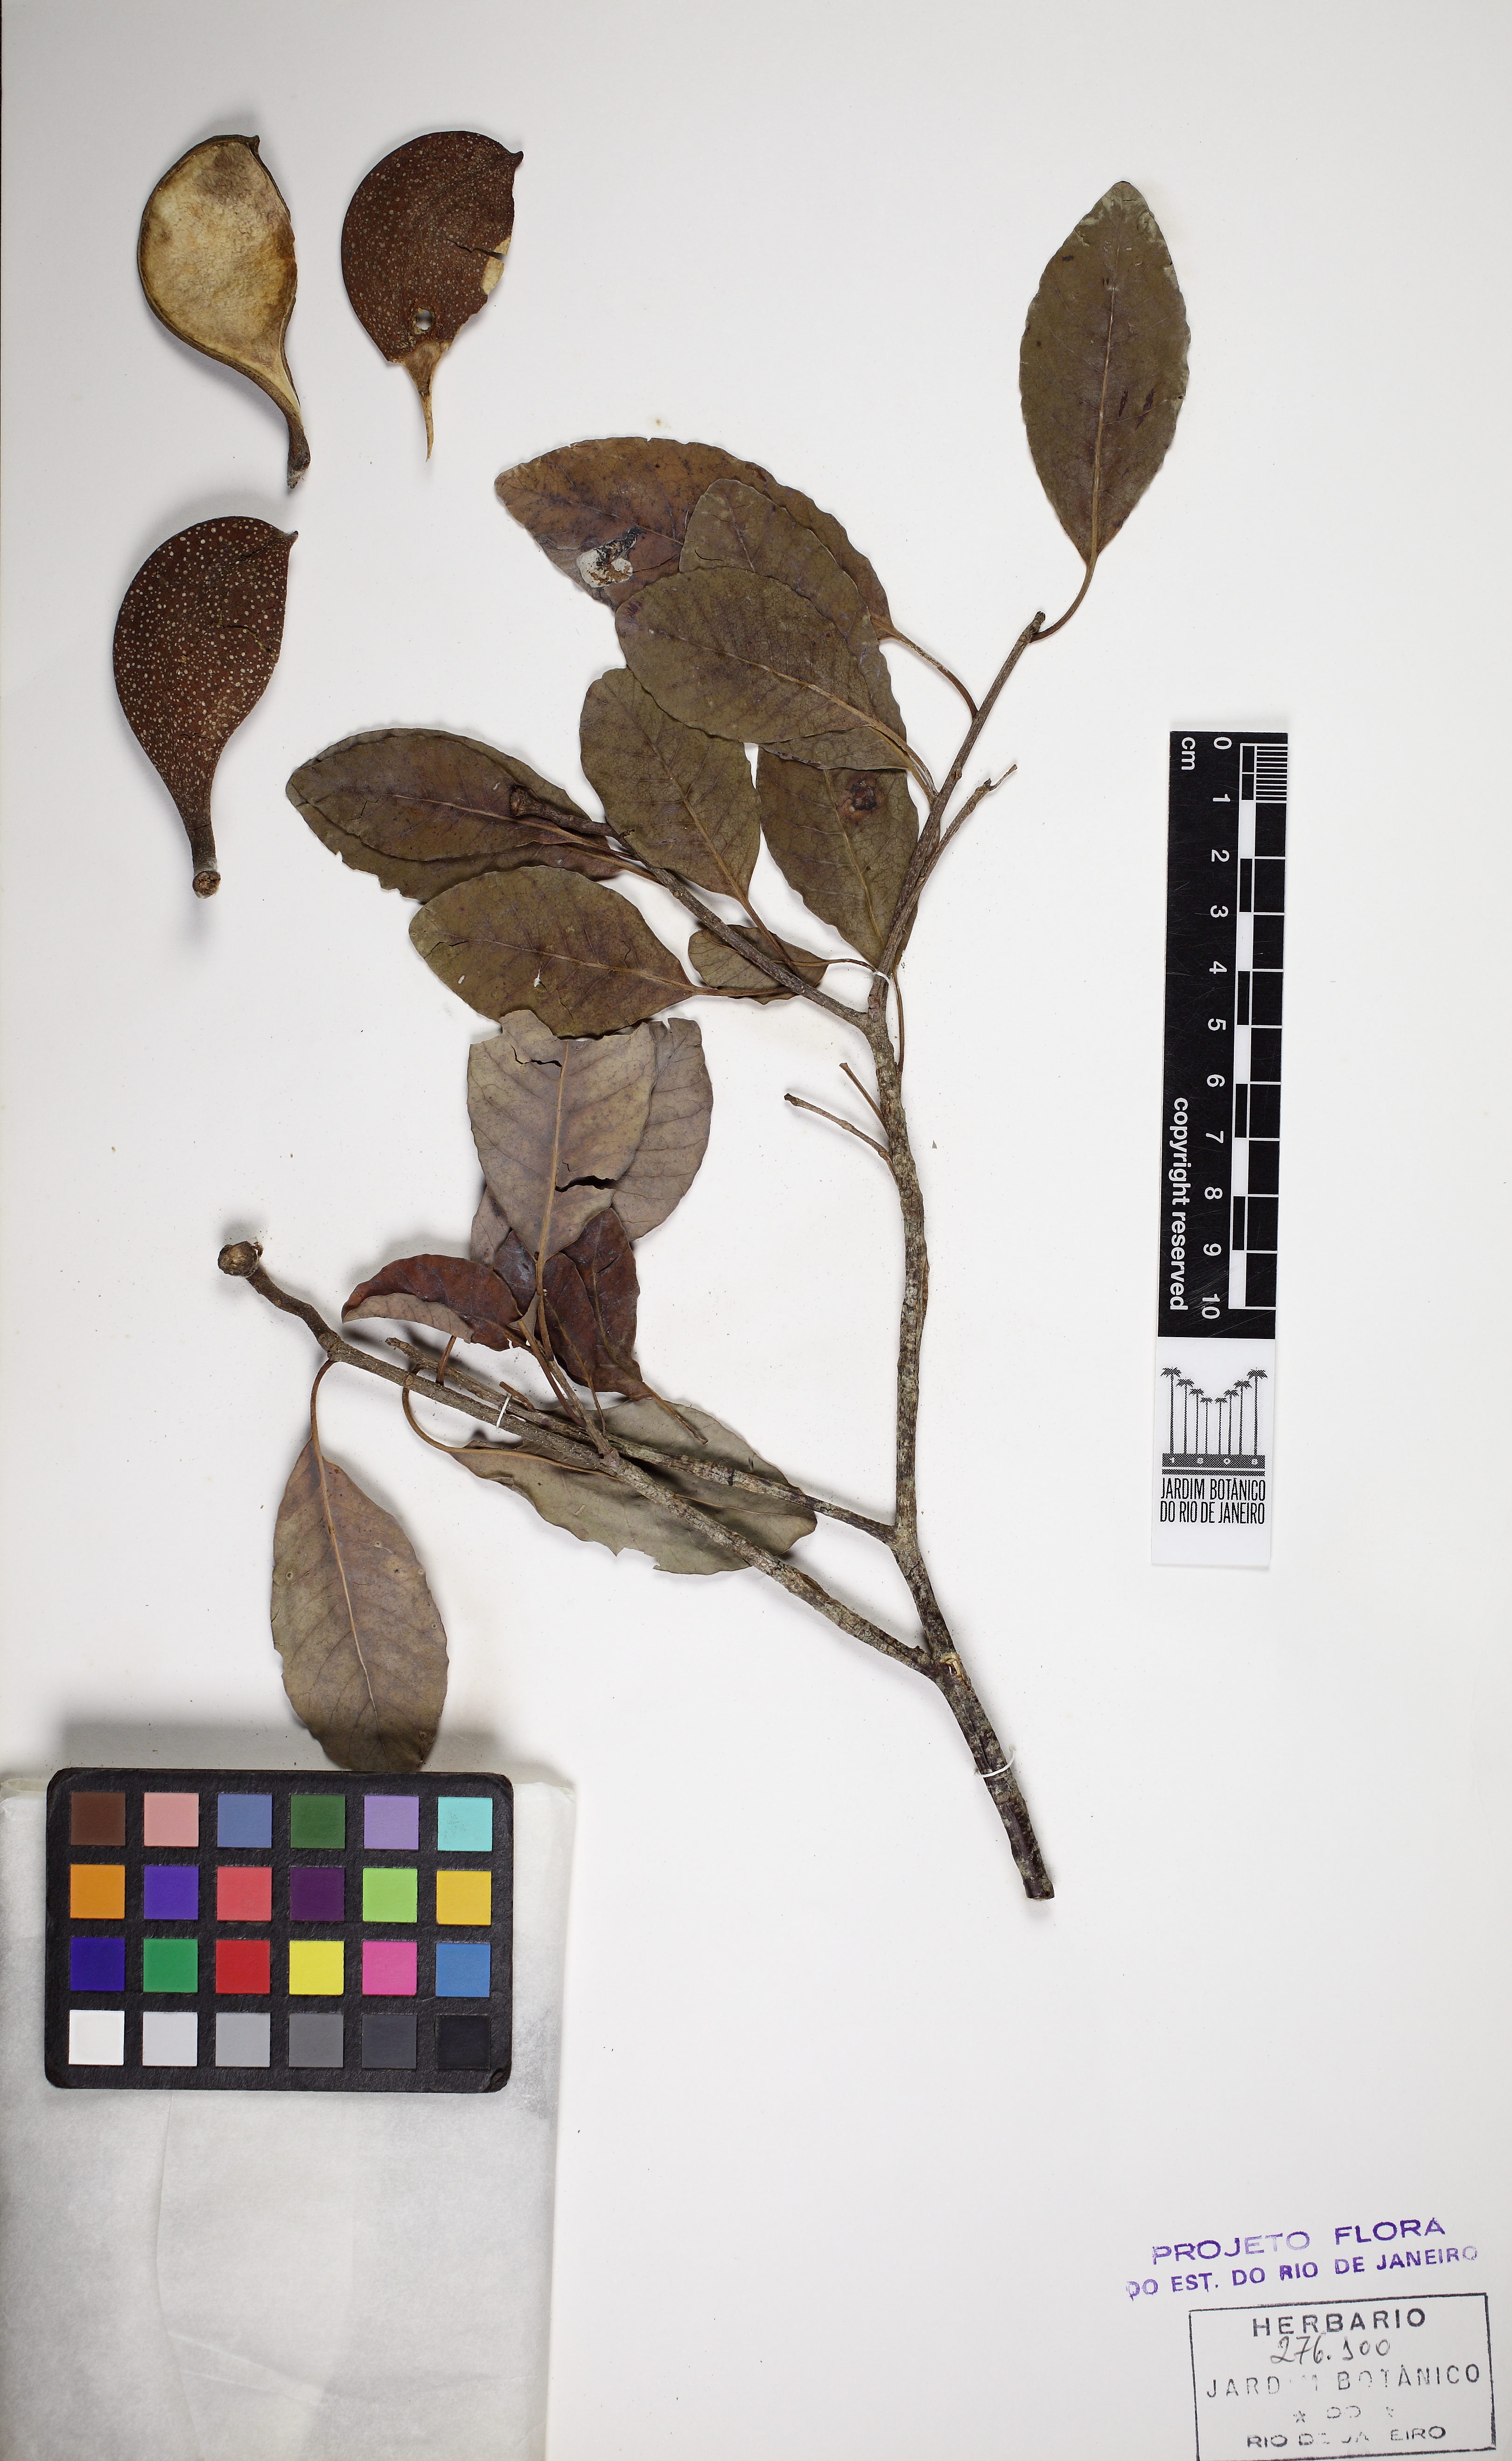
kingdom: Plantae
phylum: Tracheophyta
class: Magnoliopsida
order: Gentianales
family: Apocynaceae
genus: Aspidosperma
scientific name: Aspidosperma pyricollum
